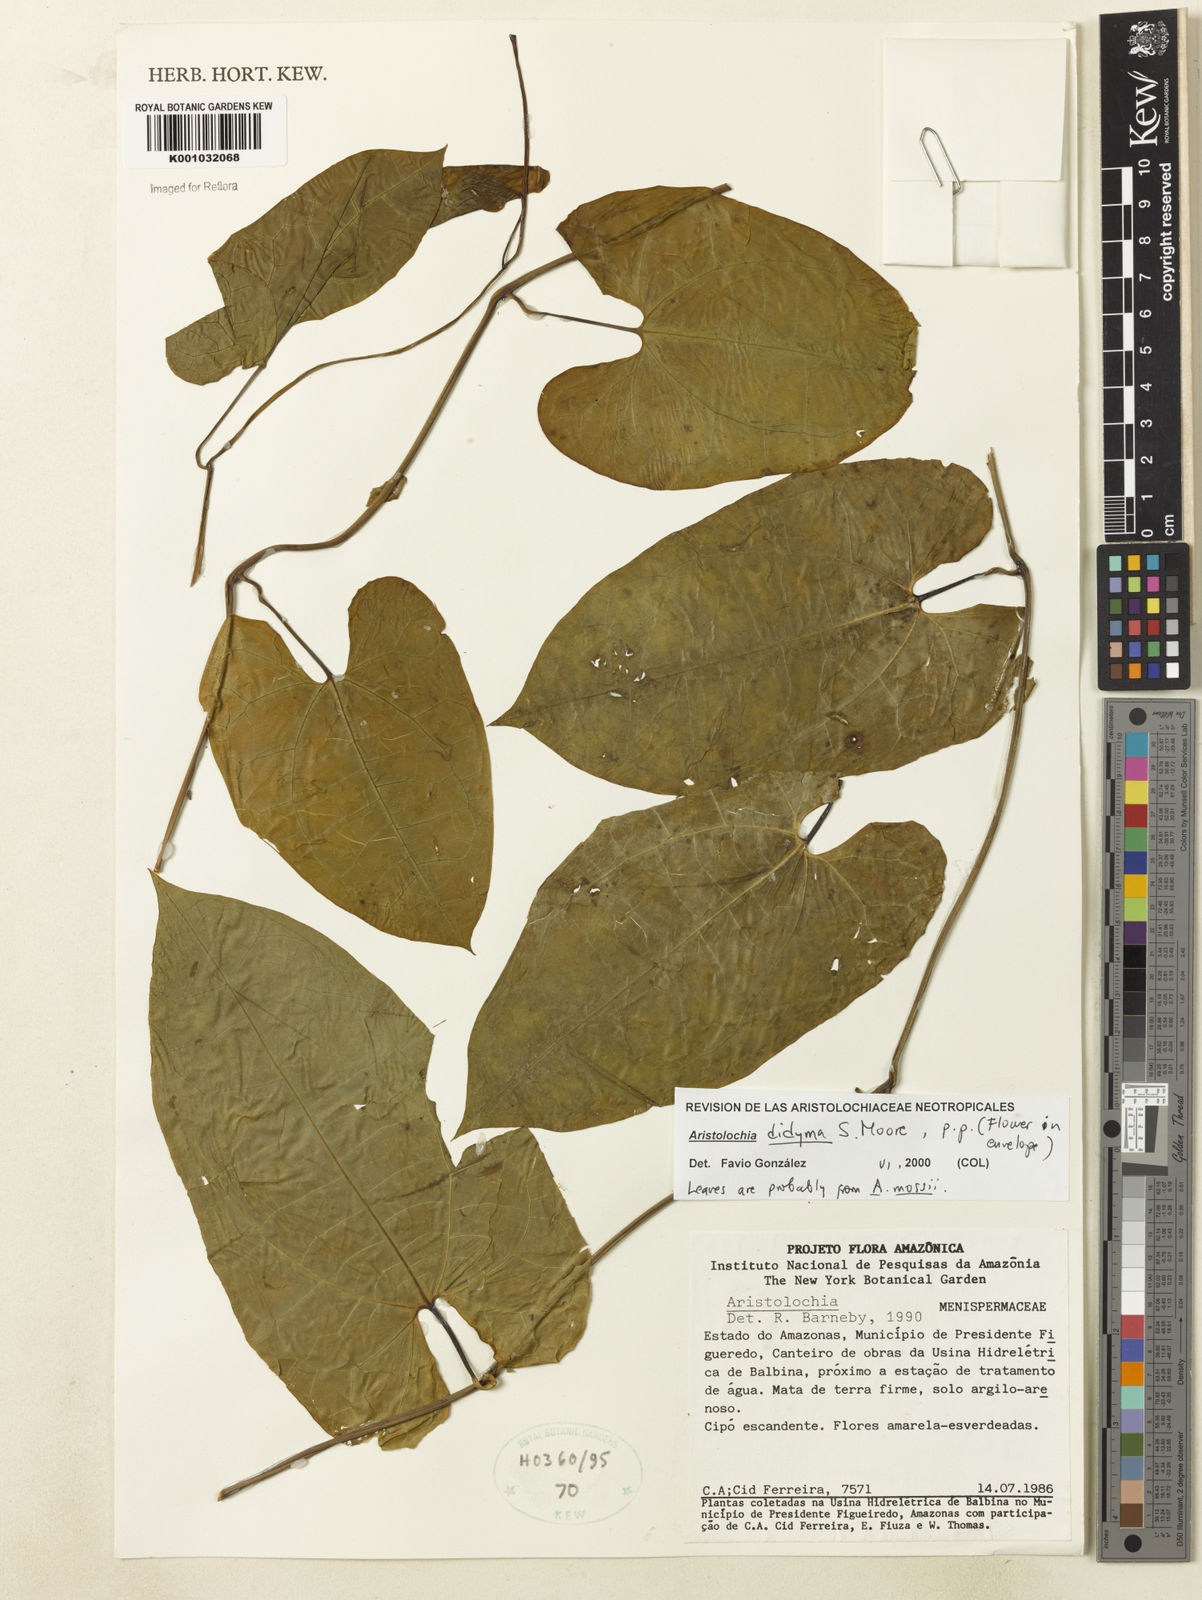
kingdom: Plantae
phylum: Tracheophyta
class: Magnoliopsida
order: Piperales
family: Aristolochiaceae
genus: Aristolochia
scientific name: Aristolochia
